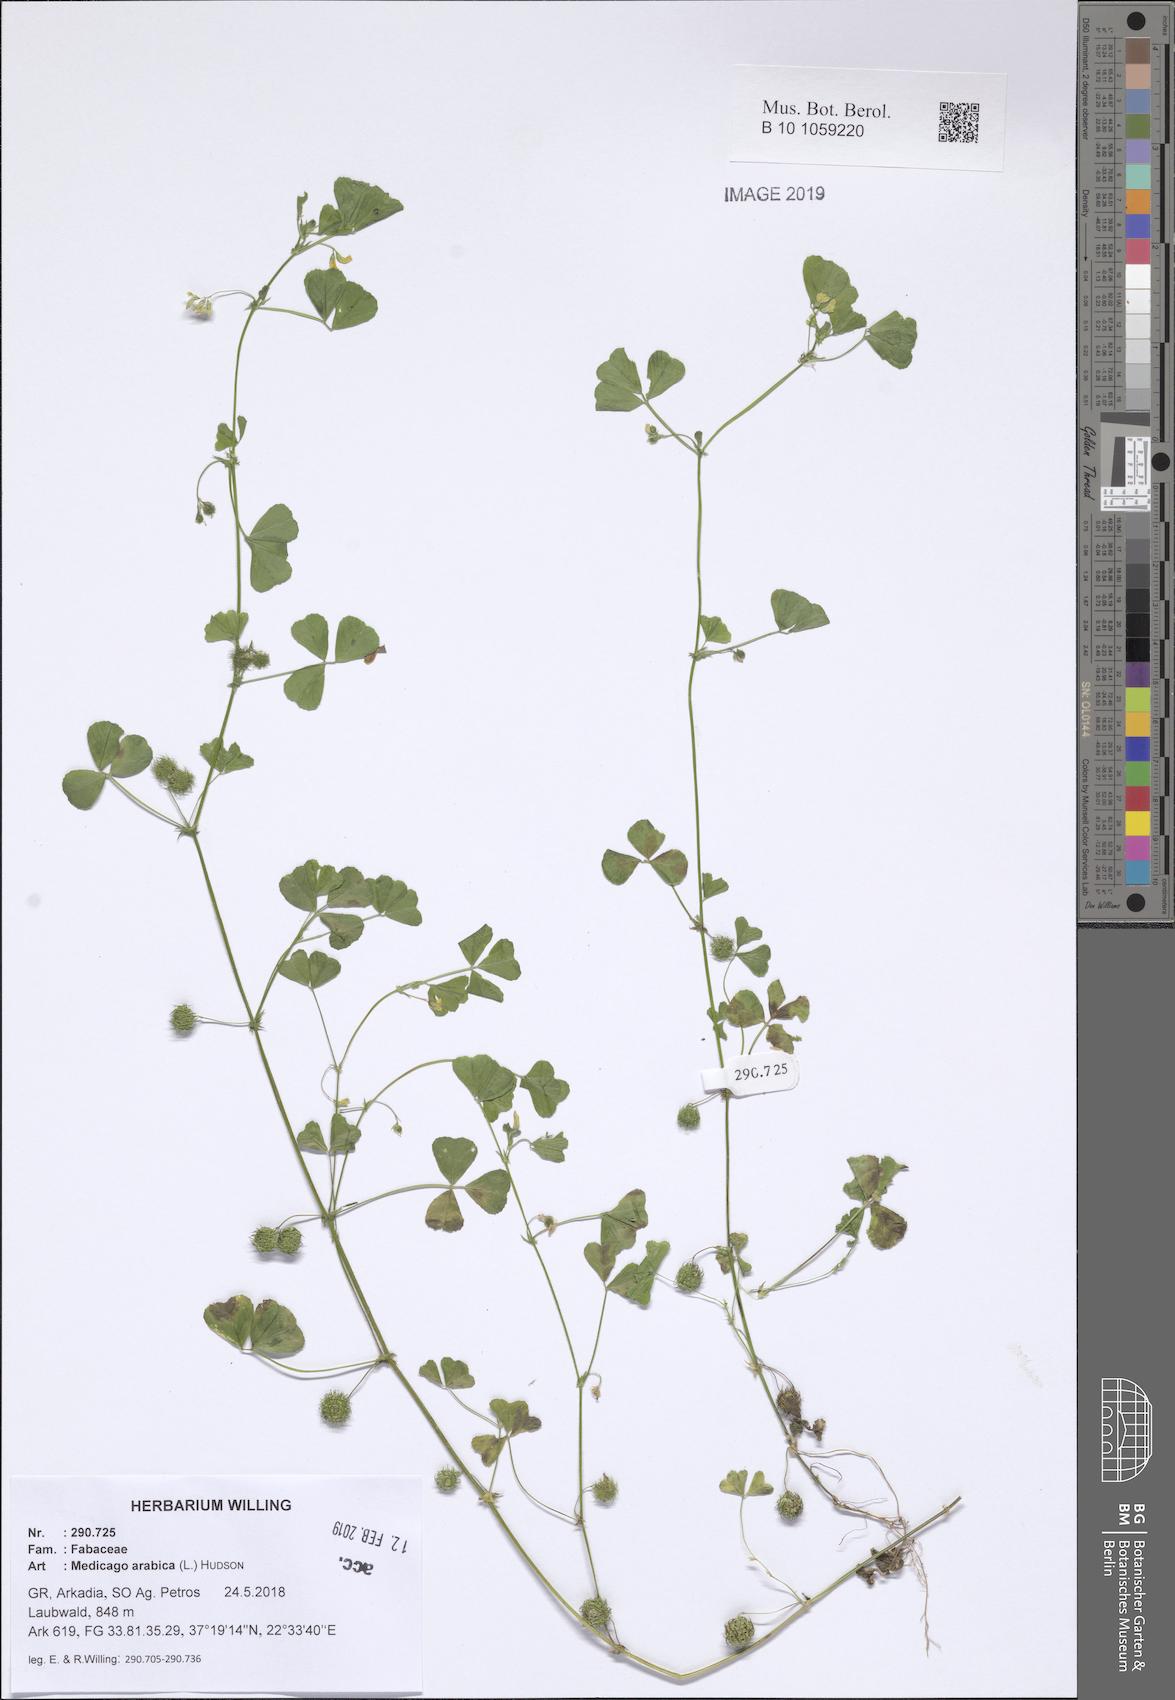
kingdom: Plantae
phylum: Tracheophyta
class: Magnoliopsida
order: Fabales
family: Fabaceae
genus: Medicago
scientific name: Medicago arabica
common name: Spotted medick
